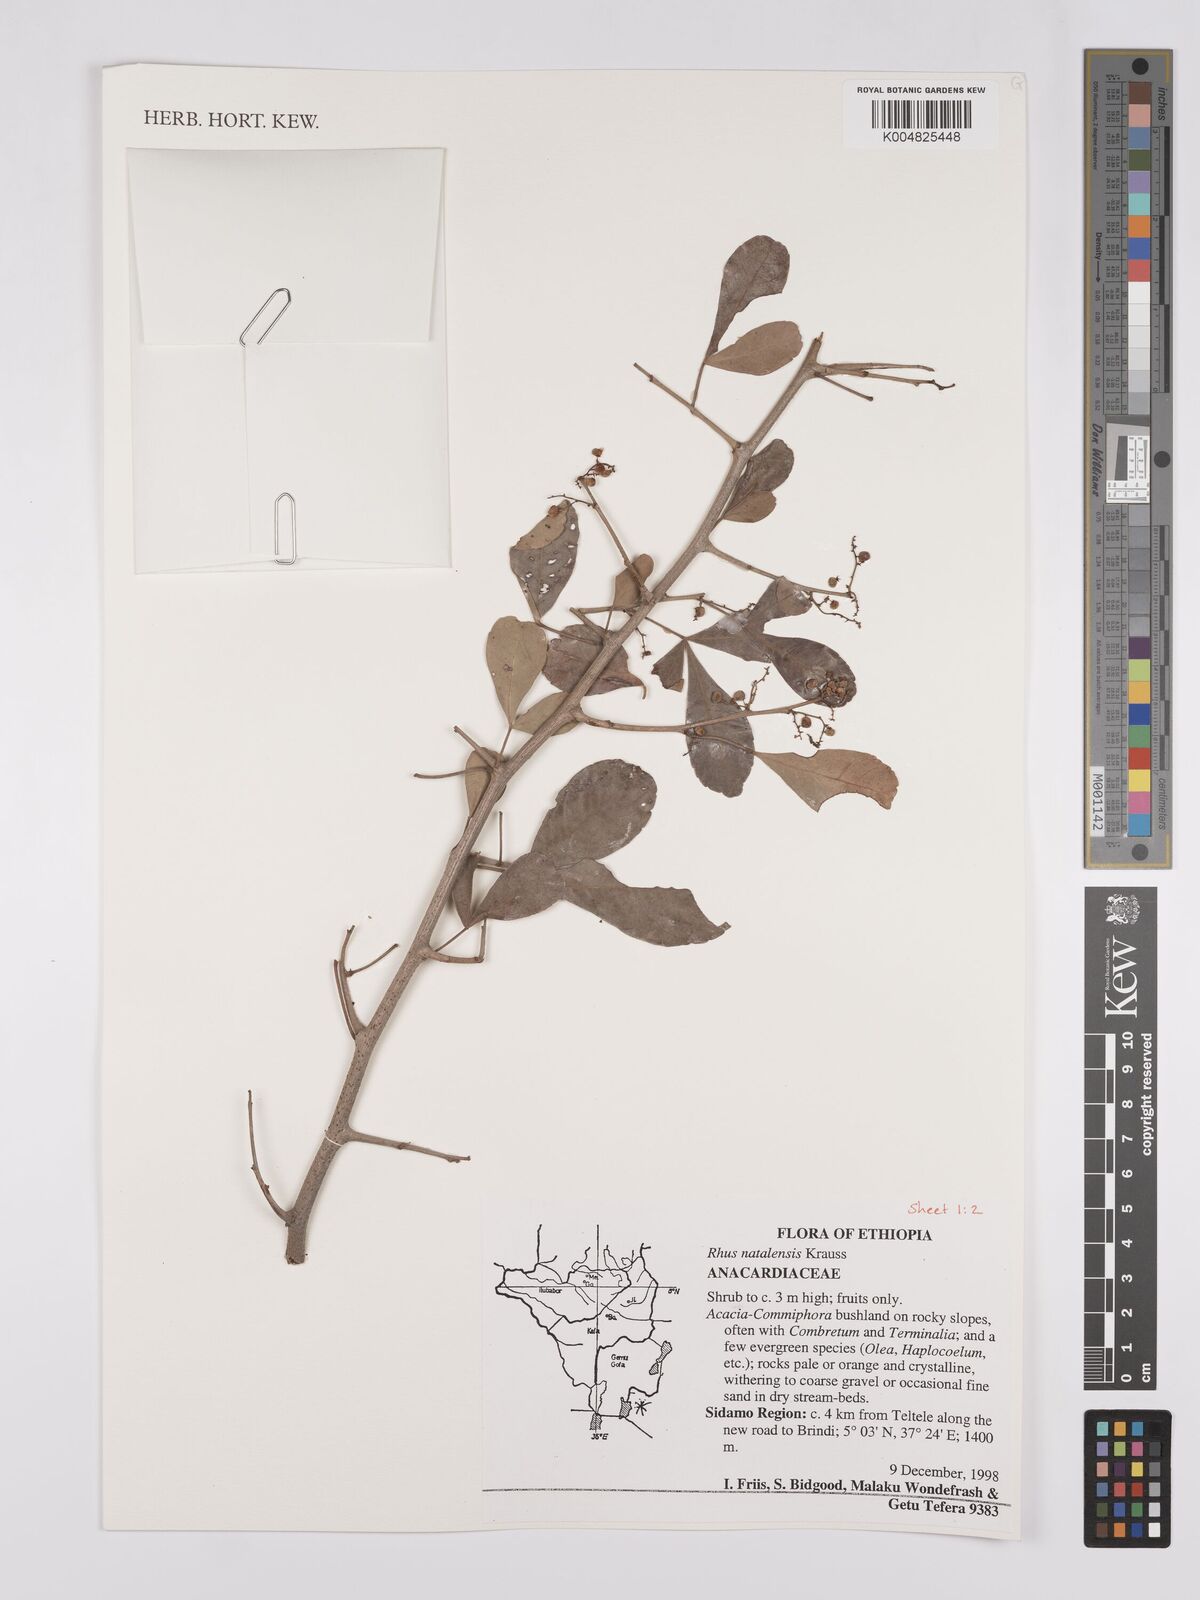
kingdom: Plantae
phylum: Tracheophyta
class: Magnoliopsida
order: Sapindales
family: Anacardiaceae
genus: Searsia
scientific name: Searsia natalensis
